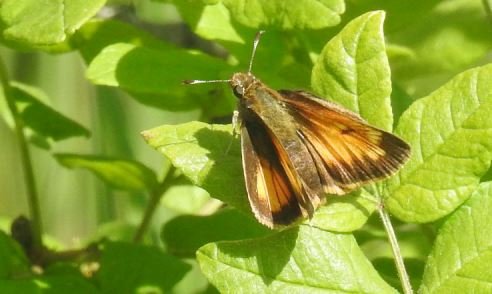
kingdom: Animalia
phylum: Arthropoda
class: Insecta
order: Lepidoptera
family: Hesperiidae
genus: Lon
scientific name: Lon hobomok
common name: Hobomok Skipper
